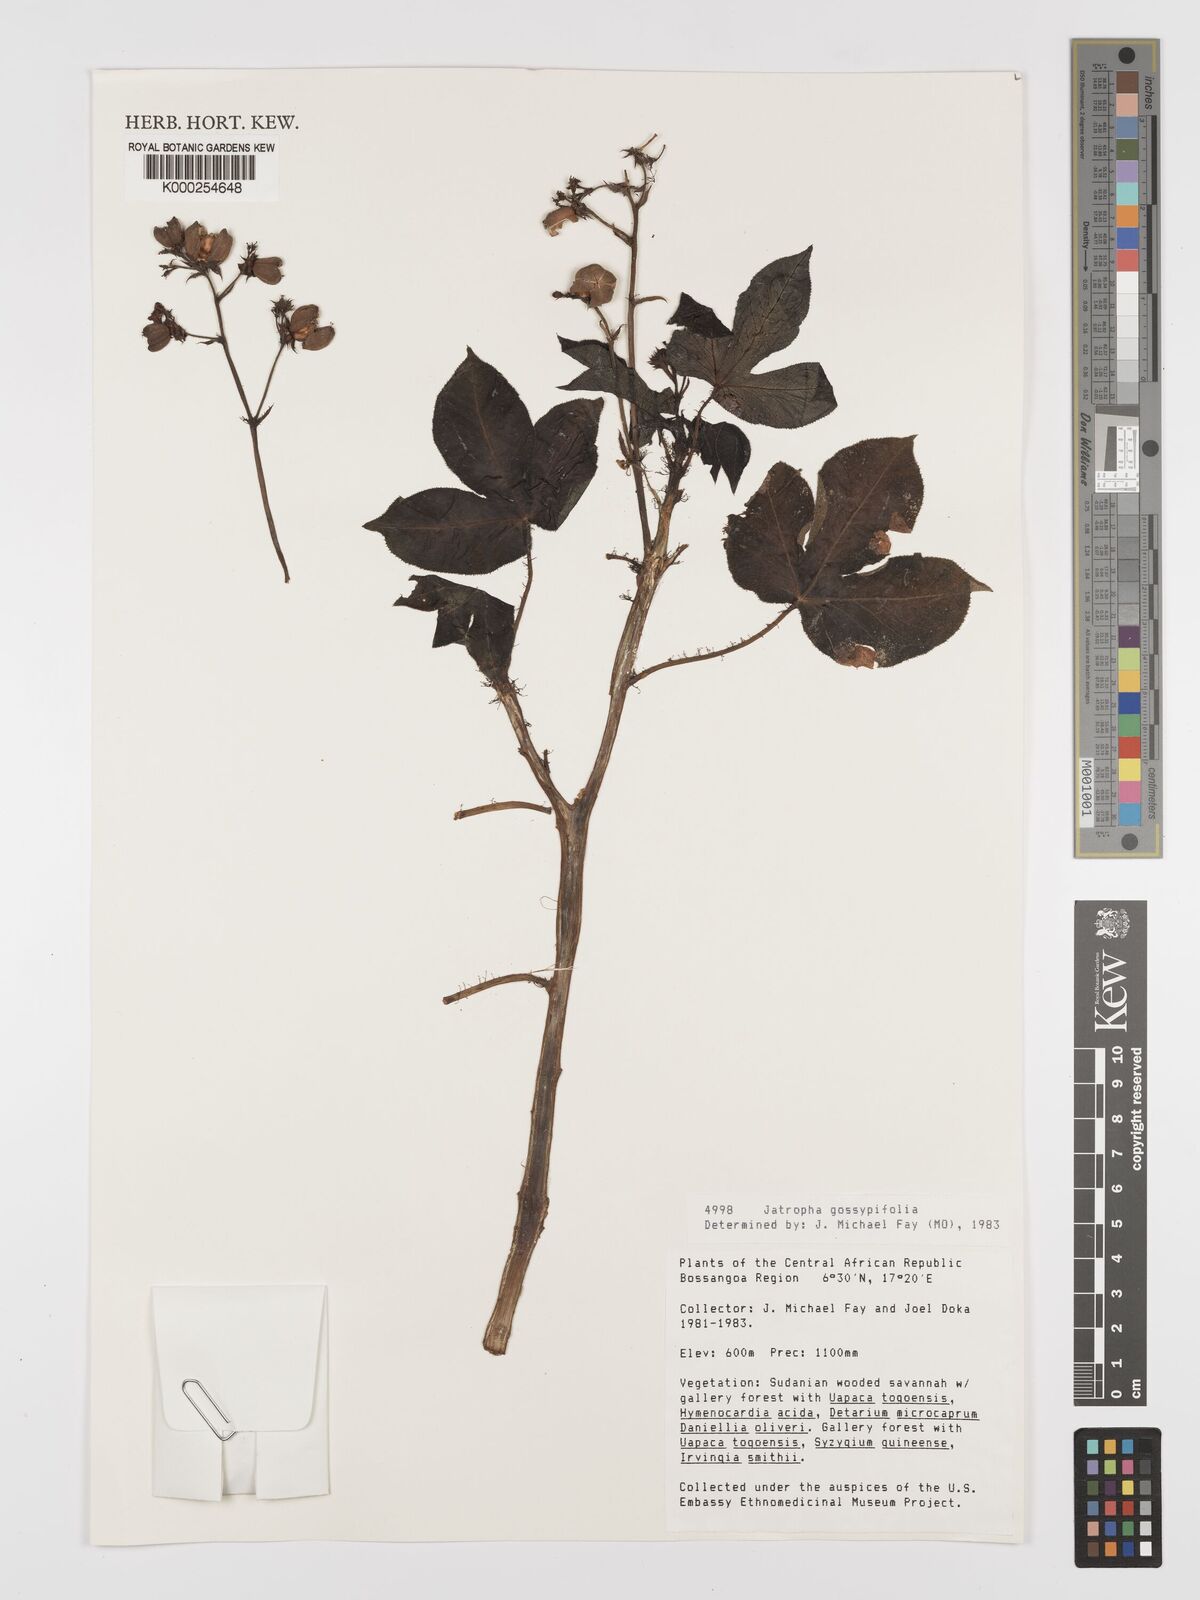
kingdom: Plantae
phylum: Tracheophyta
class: Magnoliopsida
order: Malpighiales
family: Euphorbiaceae
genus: Jatropha
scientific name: Jatropha gossypiifolia
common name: Bellyache bush
